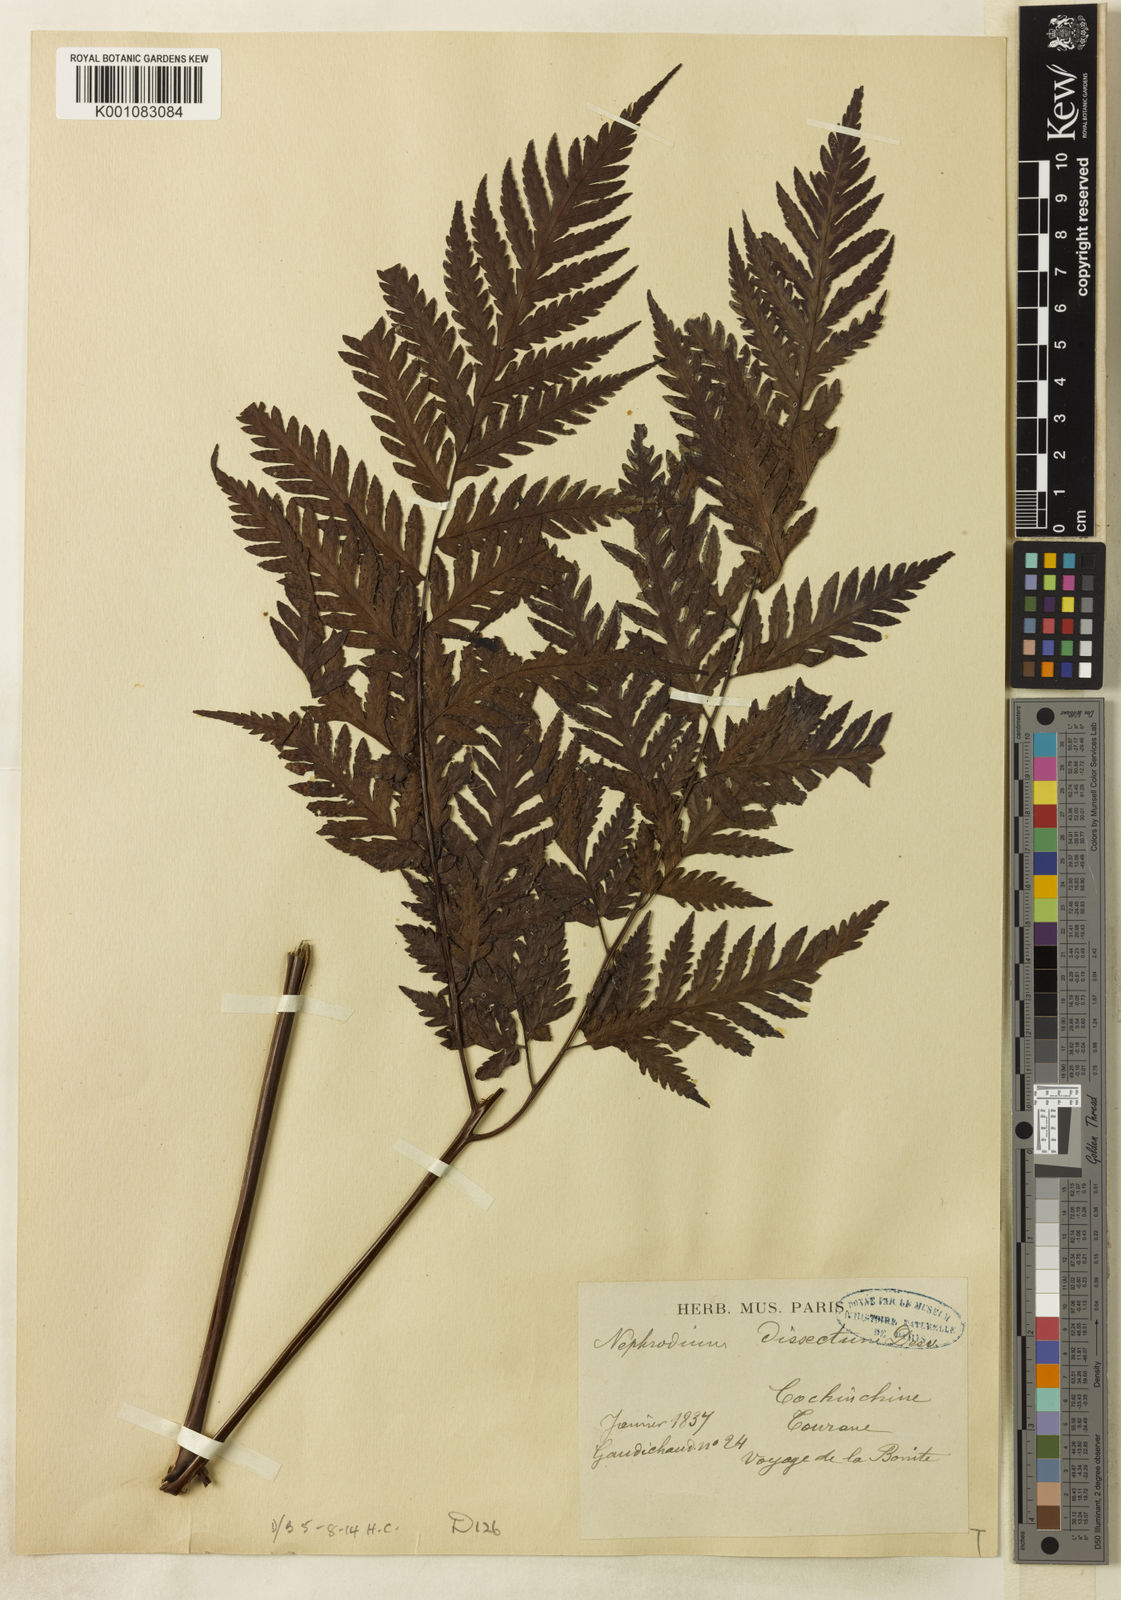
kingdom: Plantae
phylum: Tracheophyta
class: Polypodiopsida
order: Polypodiales
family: Tectariaceae
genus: Tectaria
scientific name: Tectaria
